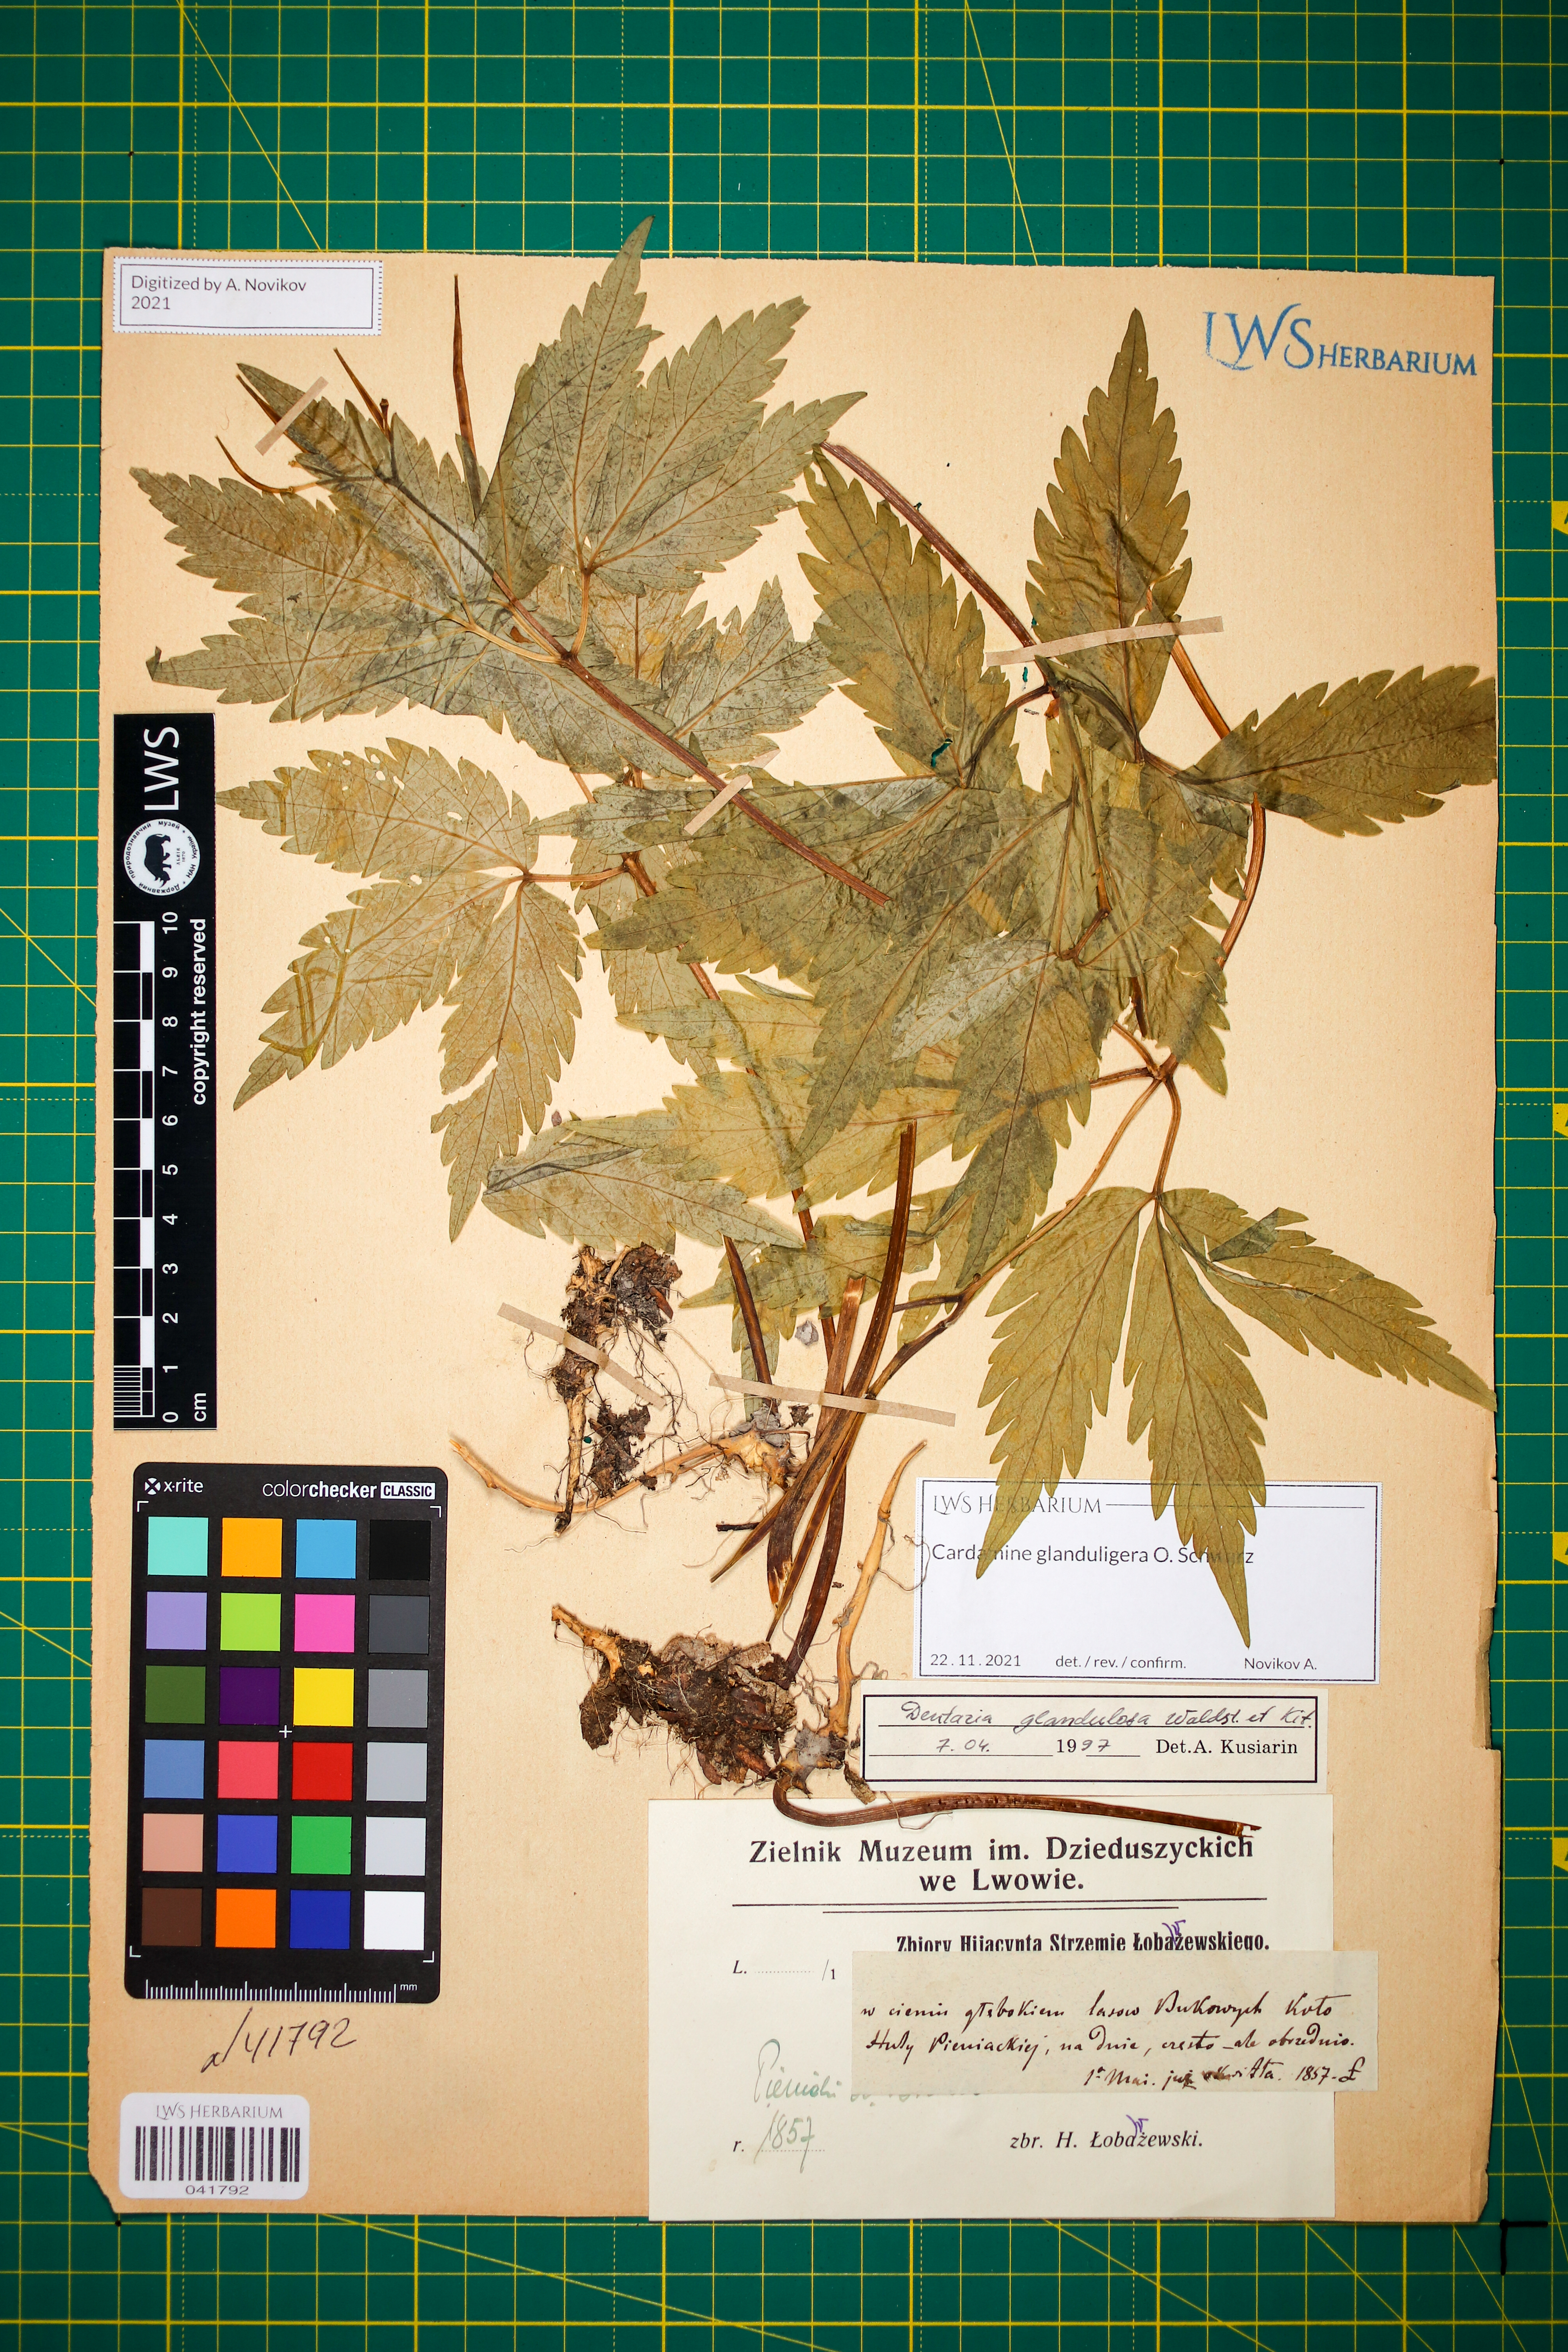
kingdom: Plantae
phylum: Tracheophyta
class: Magnoliopsida
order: Brassicales
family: Brassicaceae
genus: Cardamine
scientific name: Cardamine glanduligera
